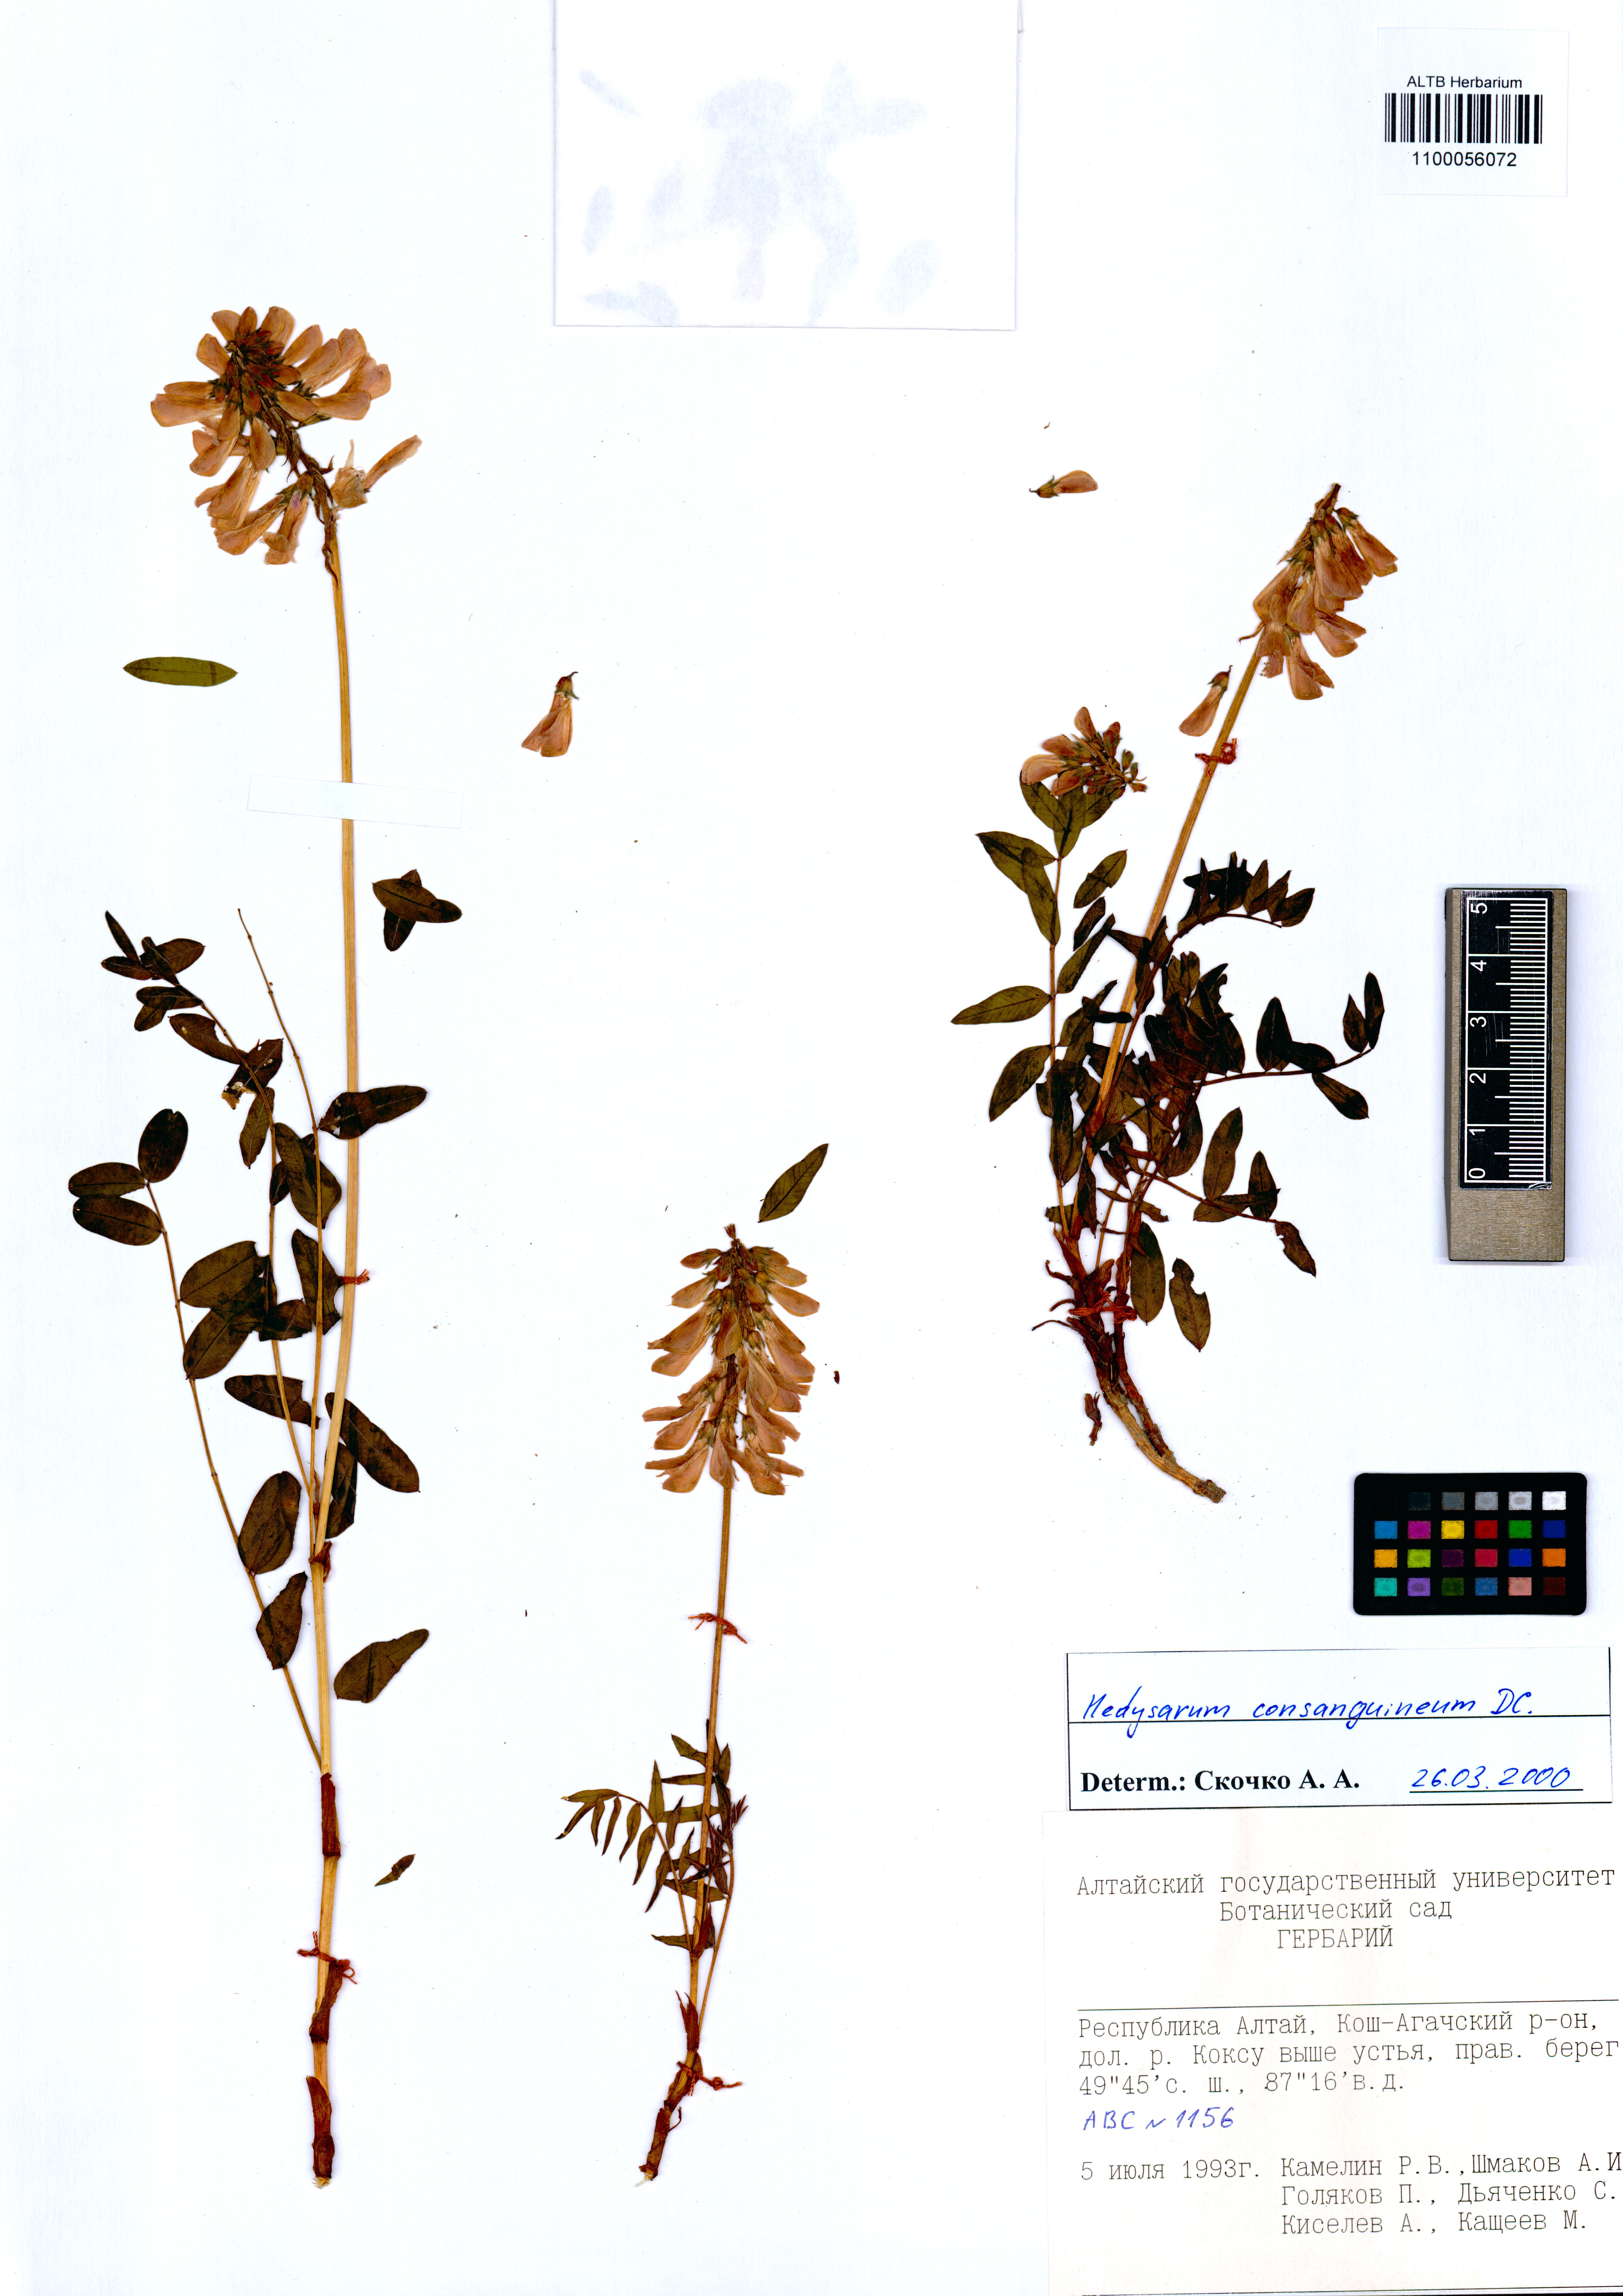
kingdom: Plantae
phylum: Tracheophyta
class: Magnoliopsida
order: Fabales
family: Fabaceae
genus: Hedysarum
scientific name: Hedysarum consanguineum
